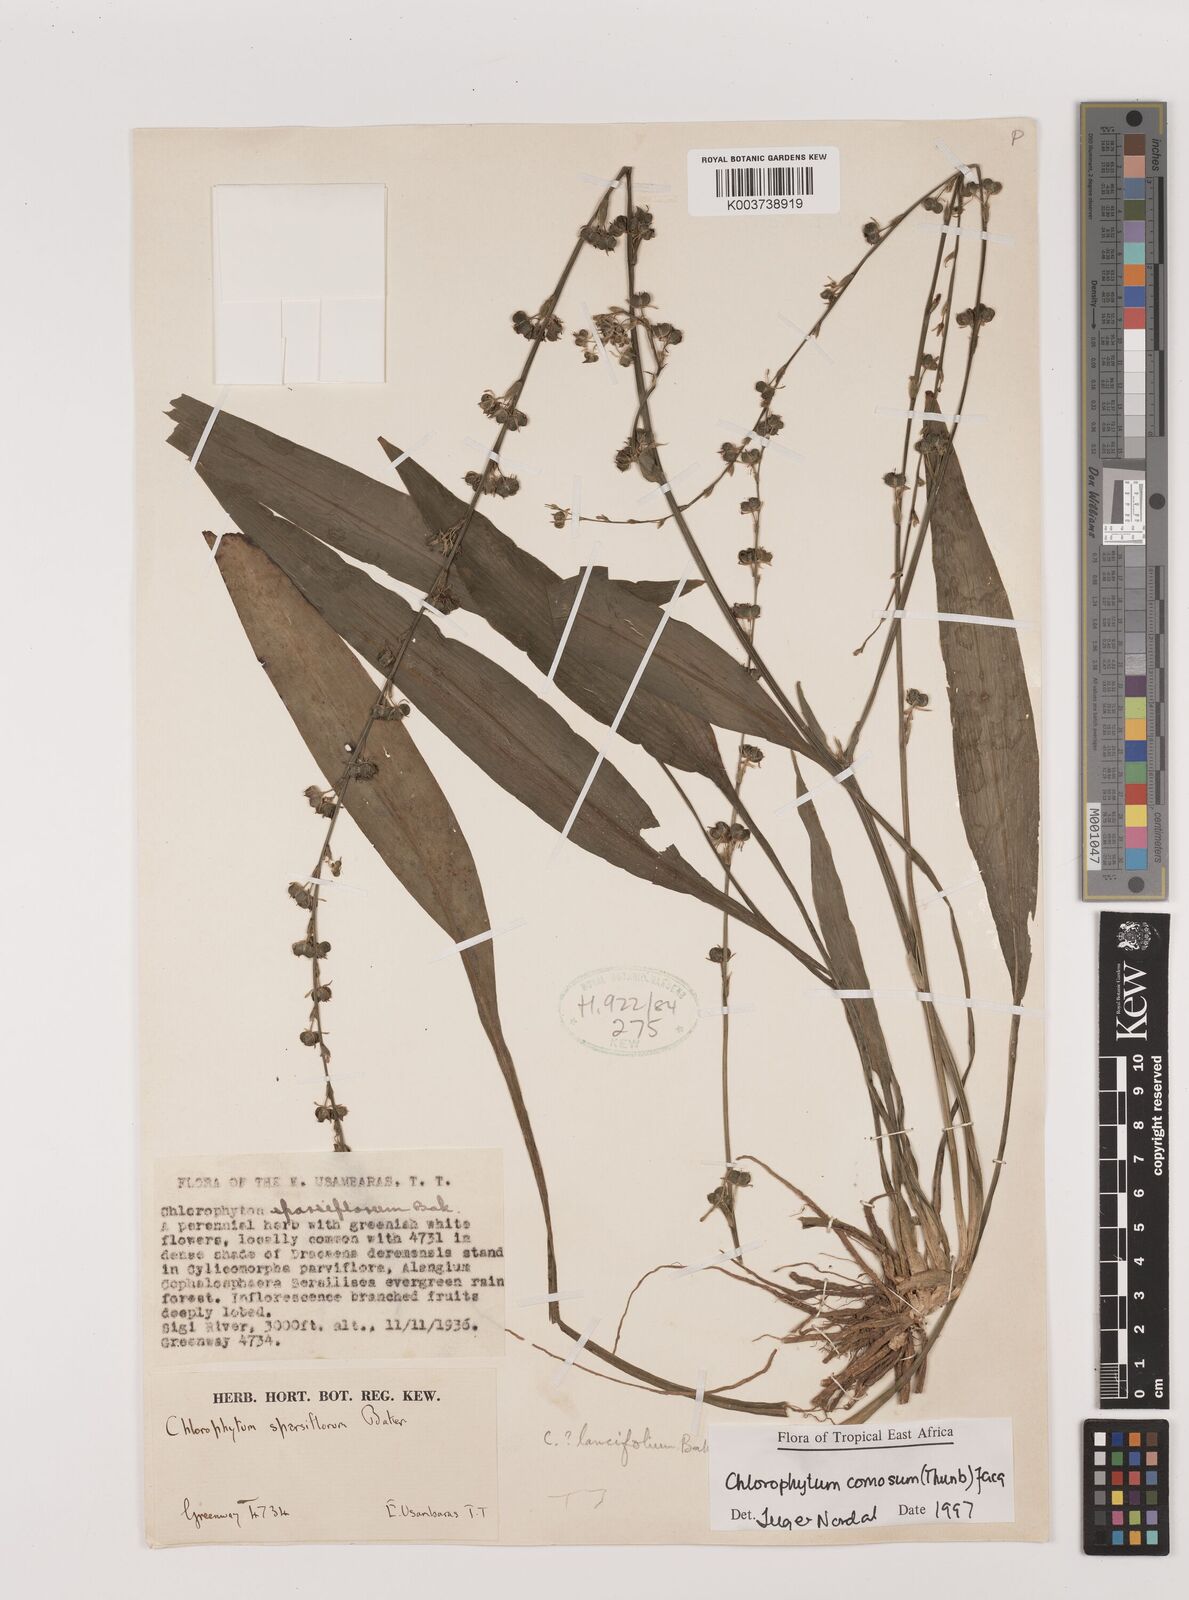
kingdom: Plantae
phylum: Tracheophyta
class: Liliopsida
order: Asparagales
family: Asparagaceae
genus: Chlorophytum
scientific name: Chlorophytum comosum
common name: Spider plant
